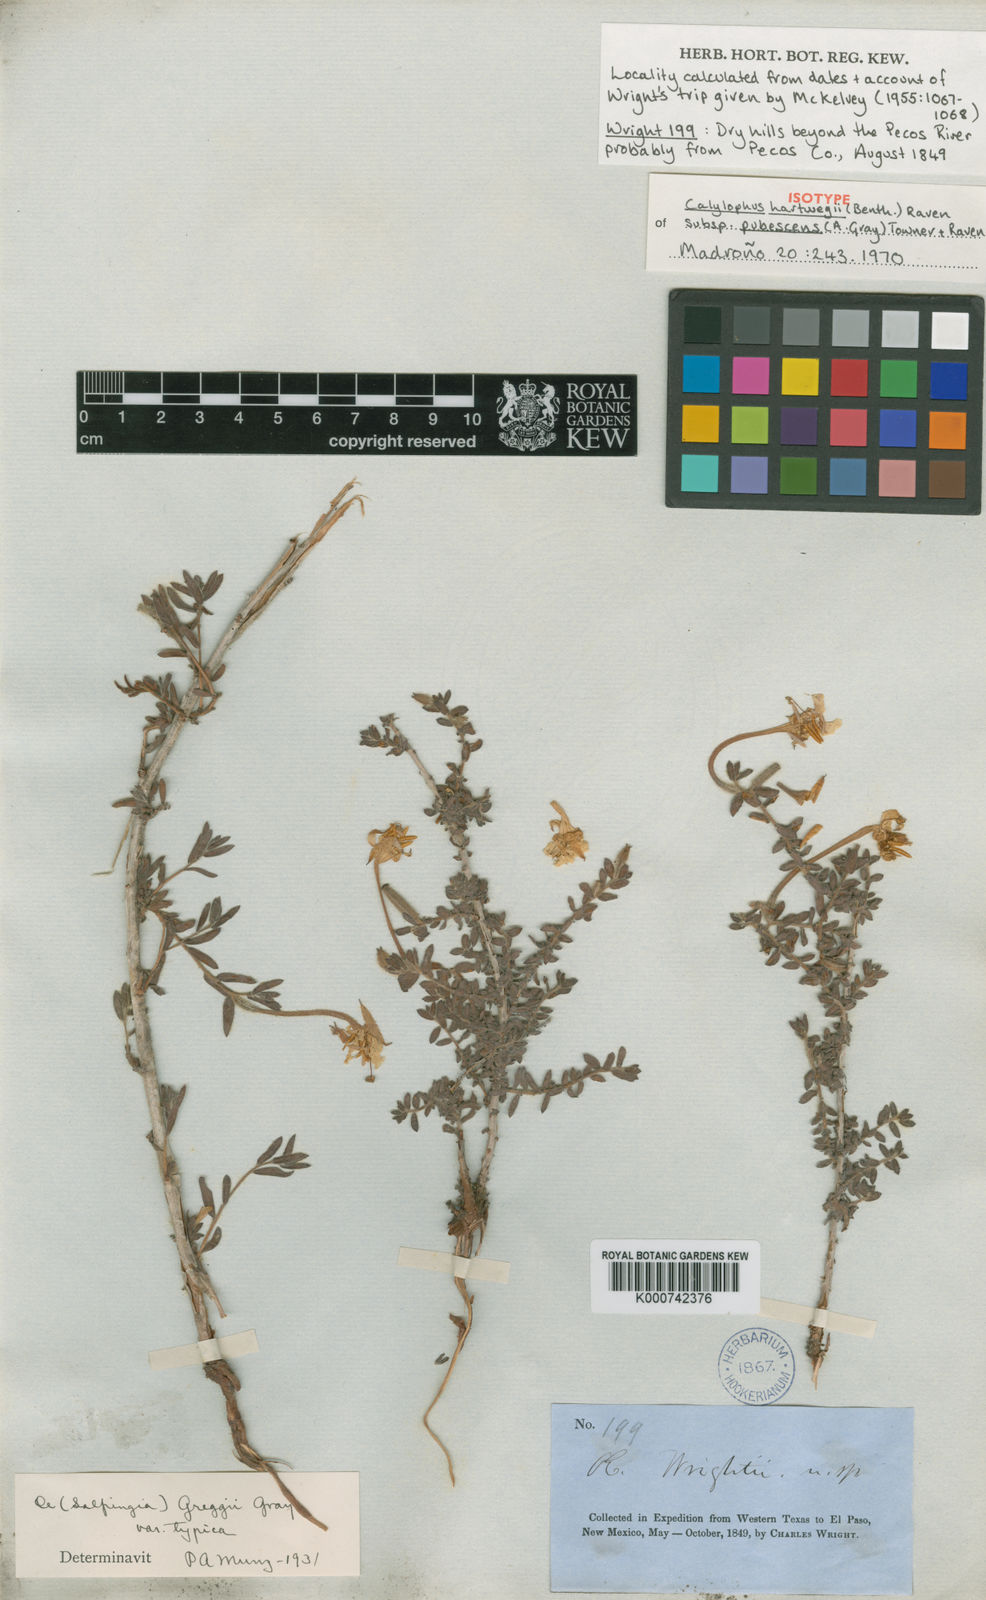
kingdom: Plantae
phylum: Tracheophyta
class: Magnoliopsida
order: Myrtales
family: Onagraceae
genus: Oenothera
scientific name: Oenothera hartwegii
